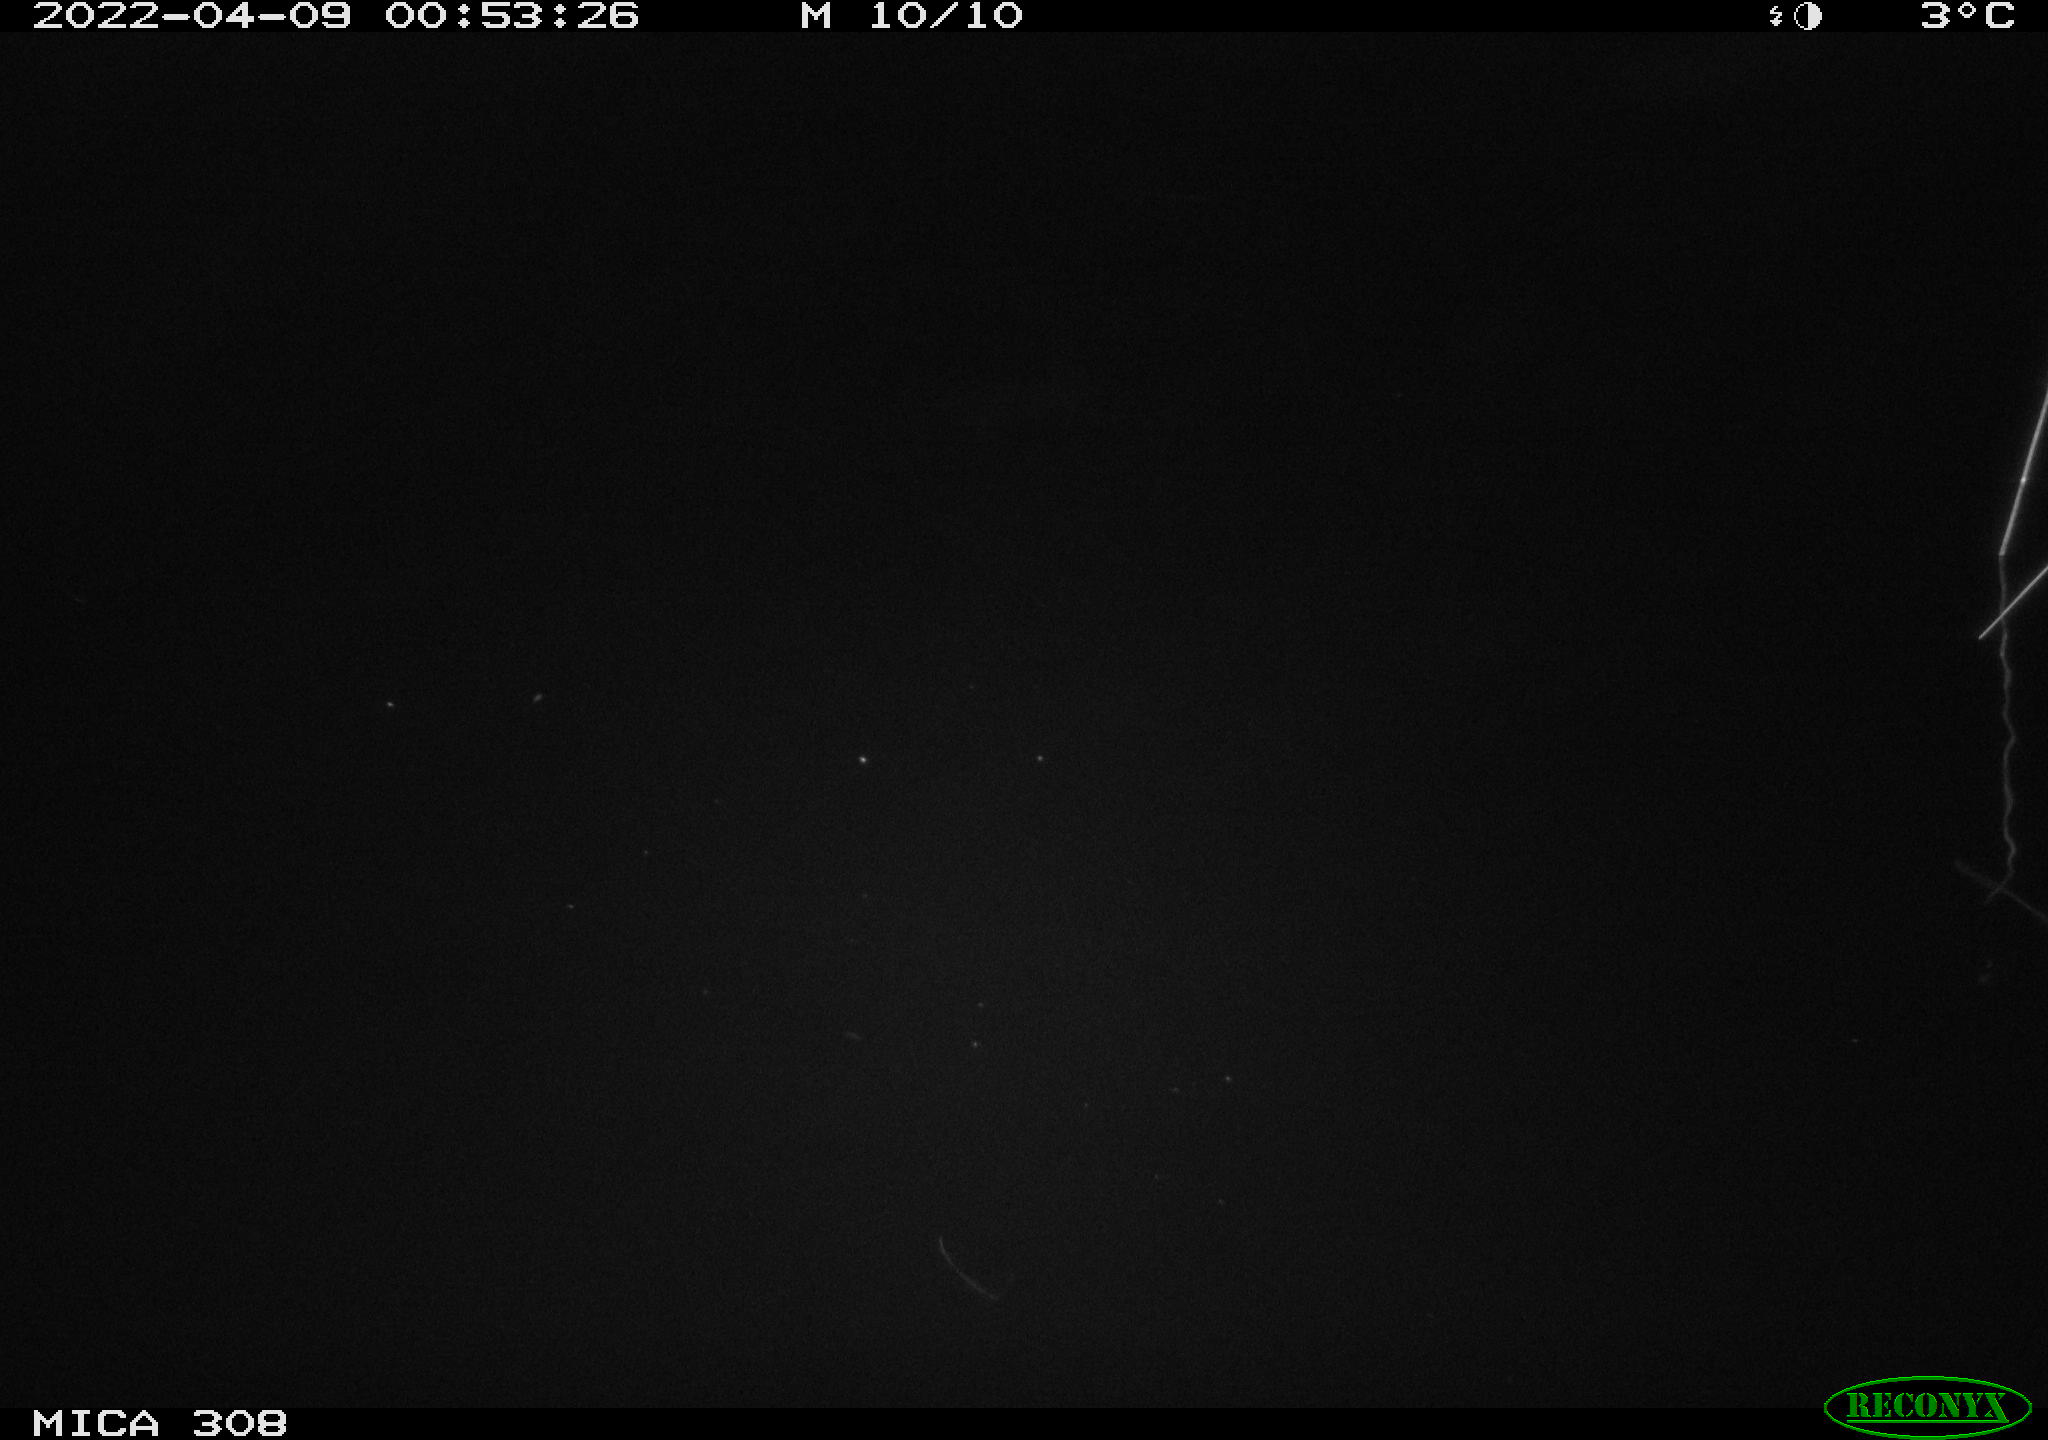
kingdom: Animalia
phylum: Chordata
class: Mammalia
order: Rodentia
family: Cricetidae
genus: Ondatra
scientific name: Ondatra zibethicus
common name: Muskrat
